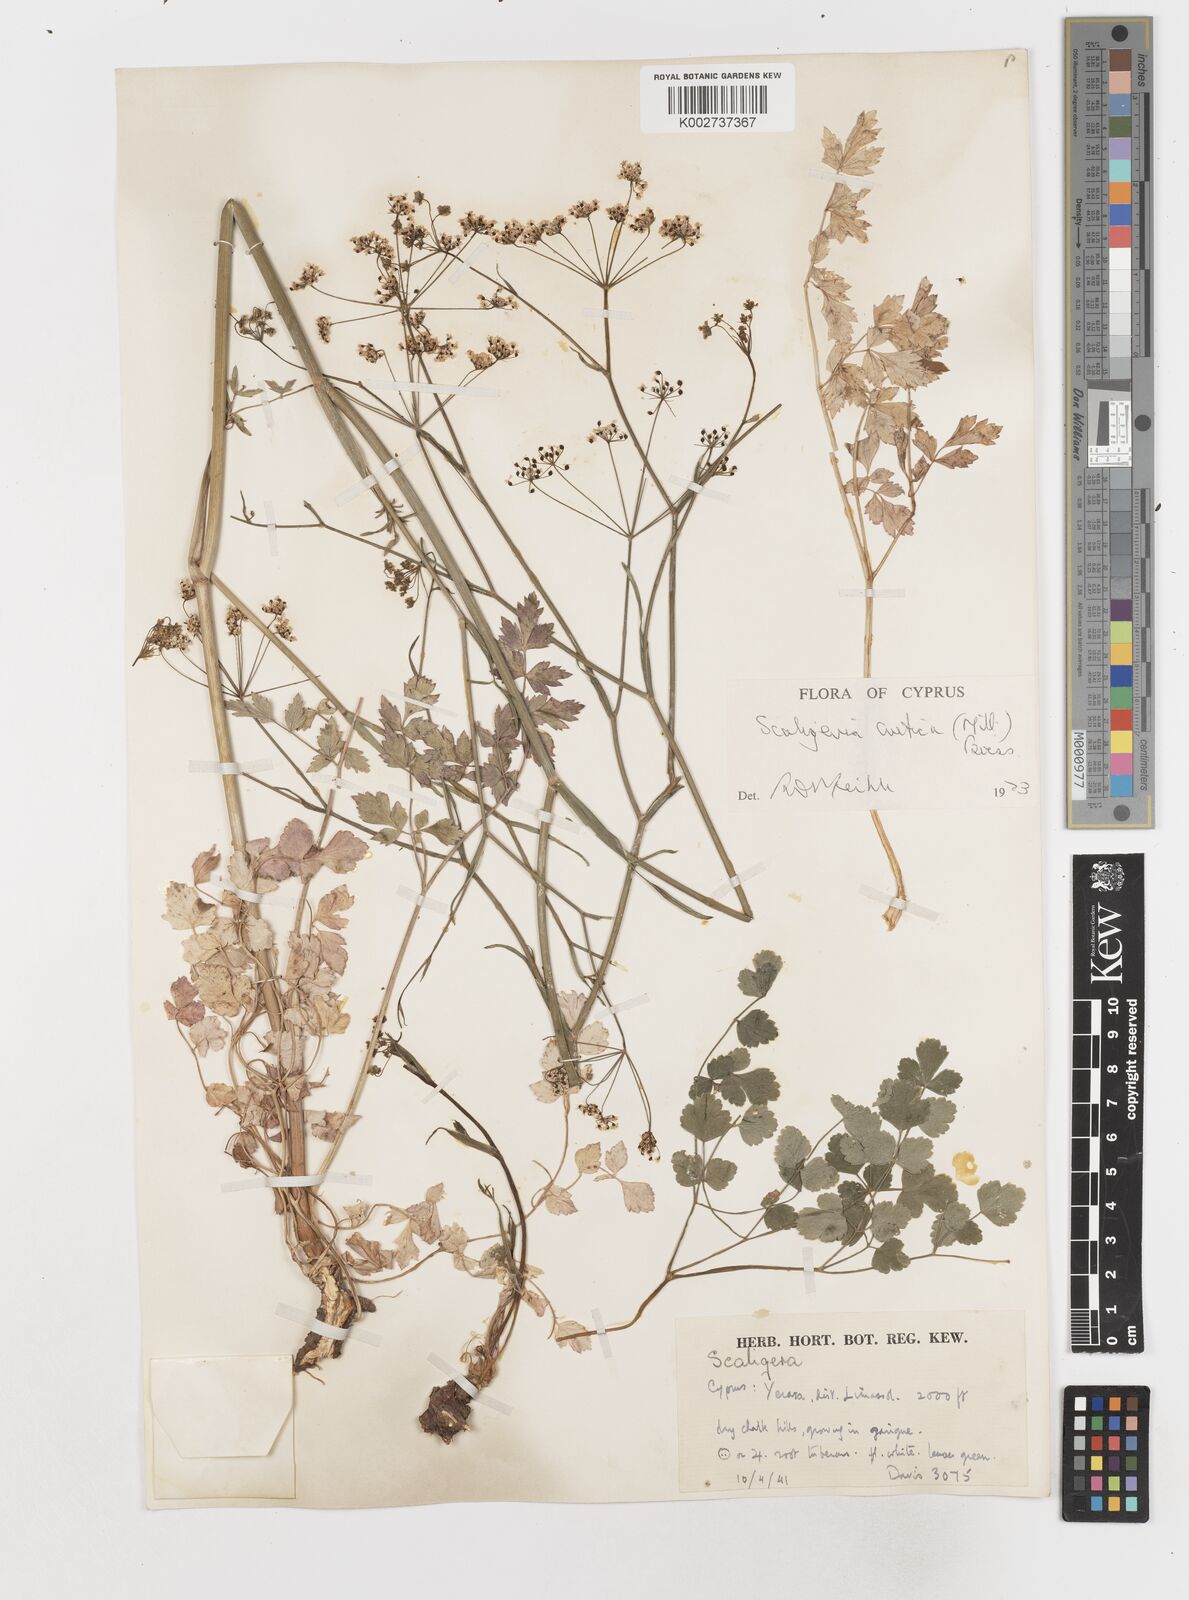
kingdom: Plantae
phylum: Tracheophyta
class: Magnoliopsida
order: Apiales
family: Apiaceae
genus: Scaligeria
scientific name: Scaligeria
